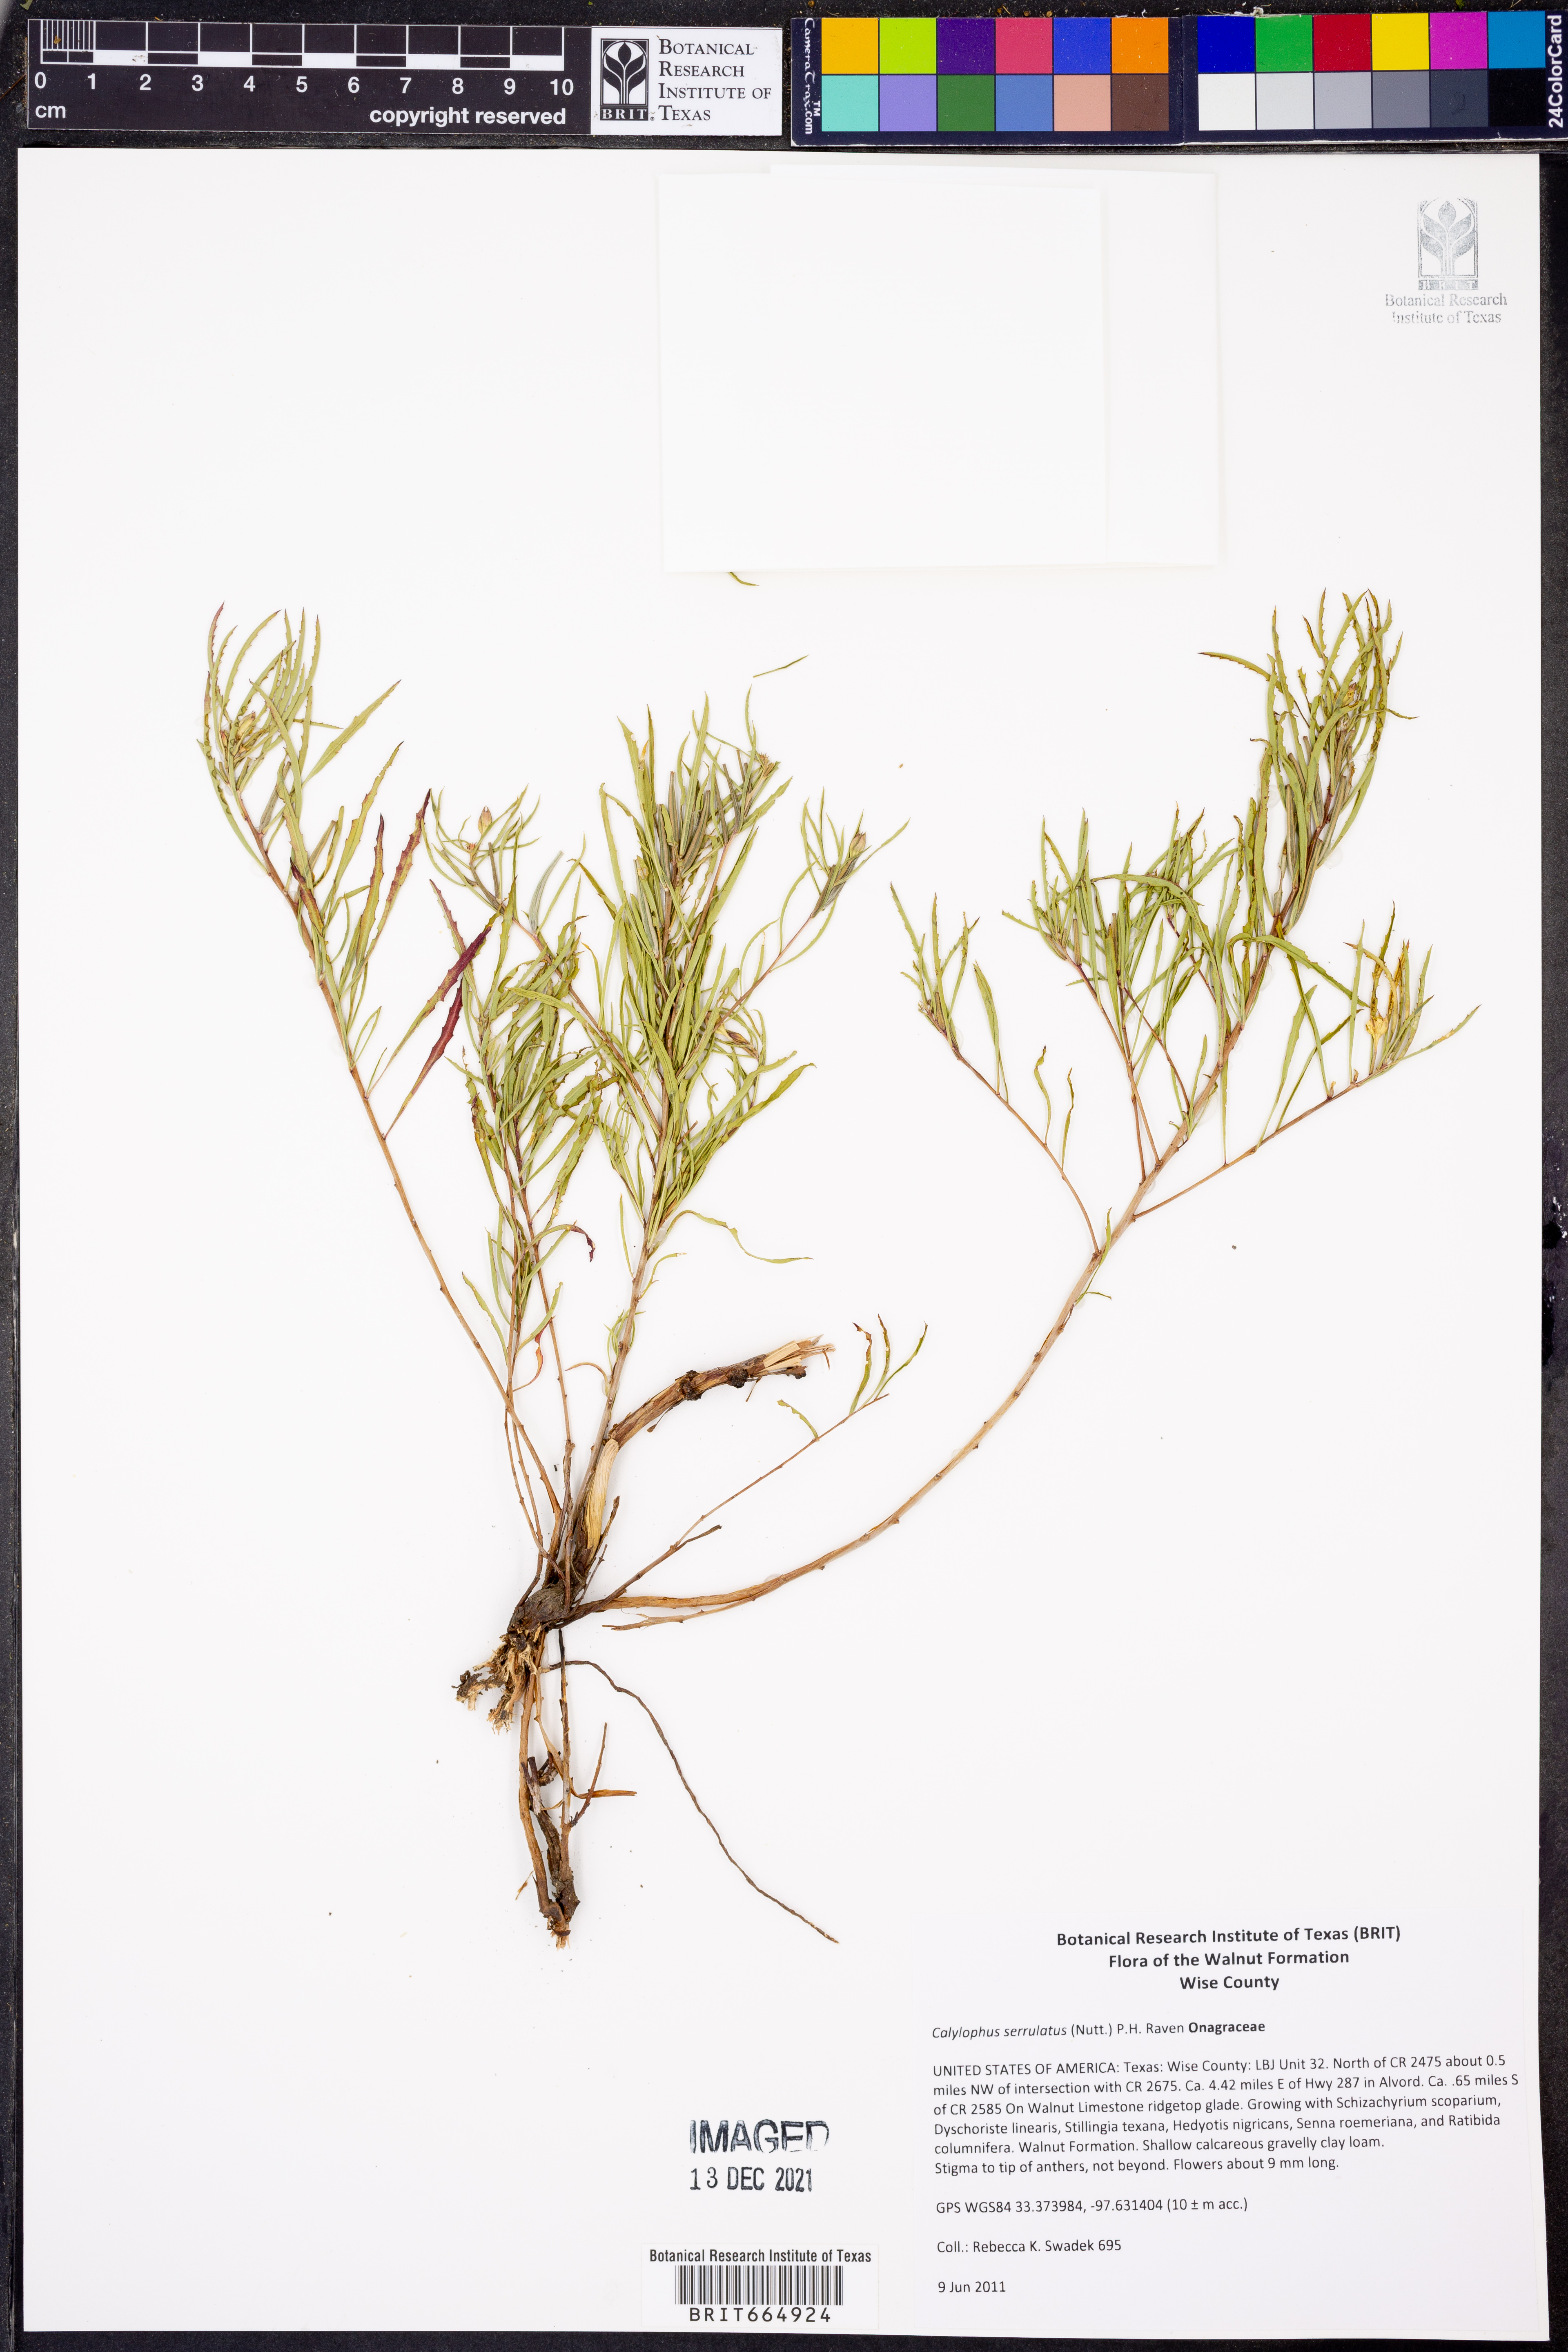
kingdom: Plantae
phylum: Tracheophyta
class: Magnoliopsida
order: Myrtales
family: Onagraceae
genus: Oenothera
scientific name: Oenothera serrulata
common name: Half-shrub calylophus
